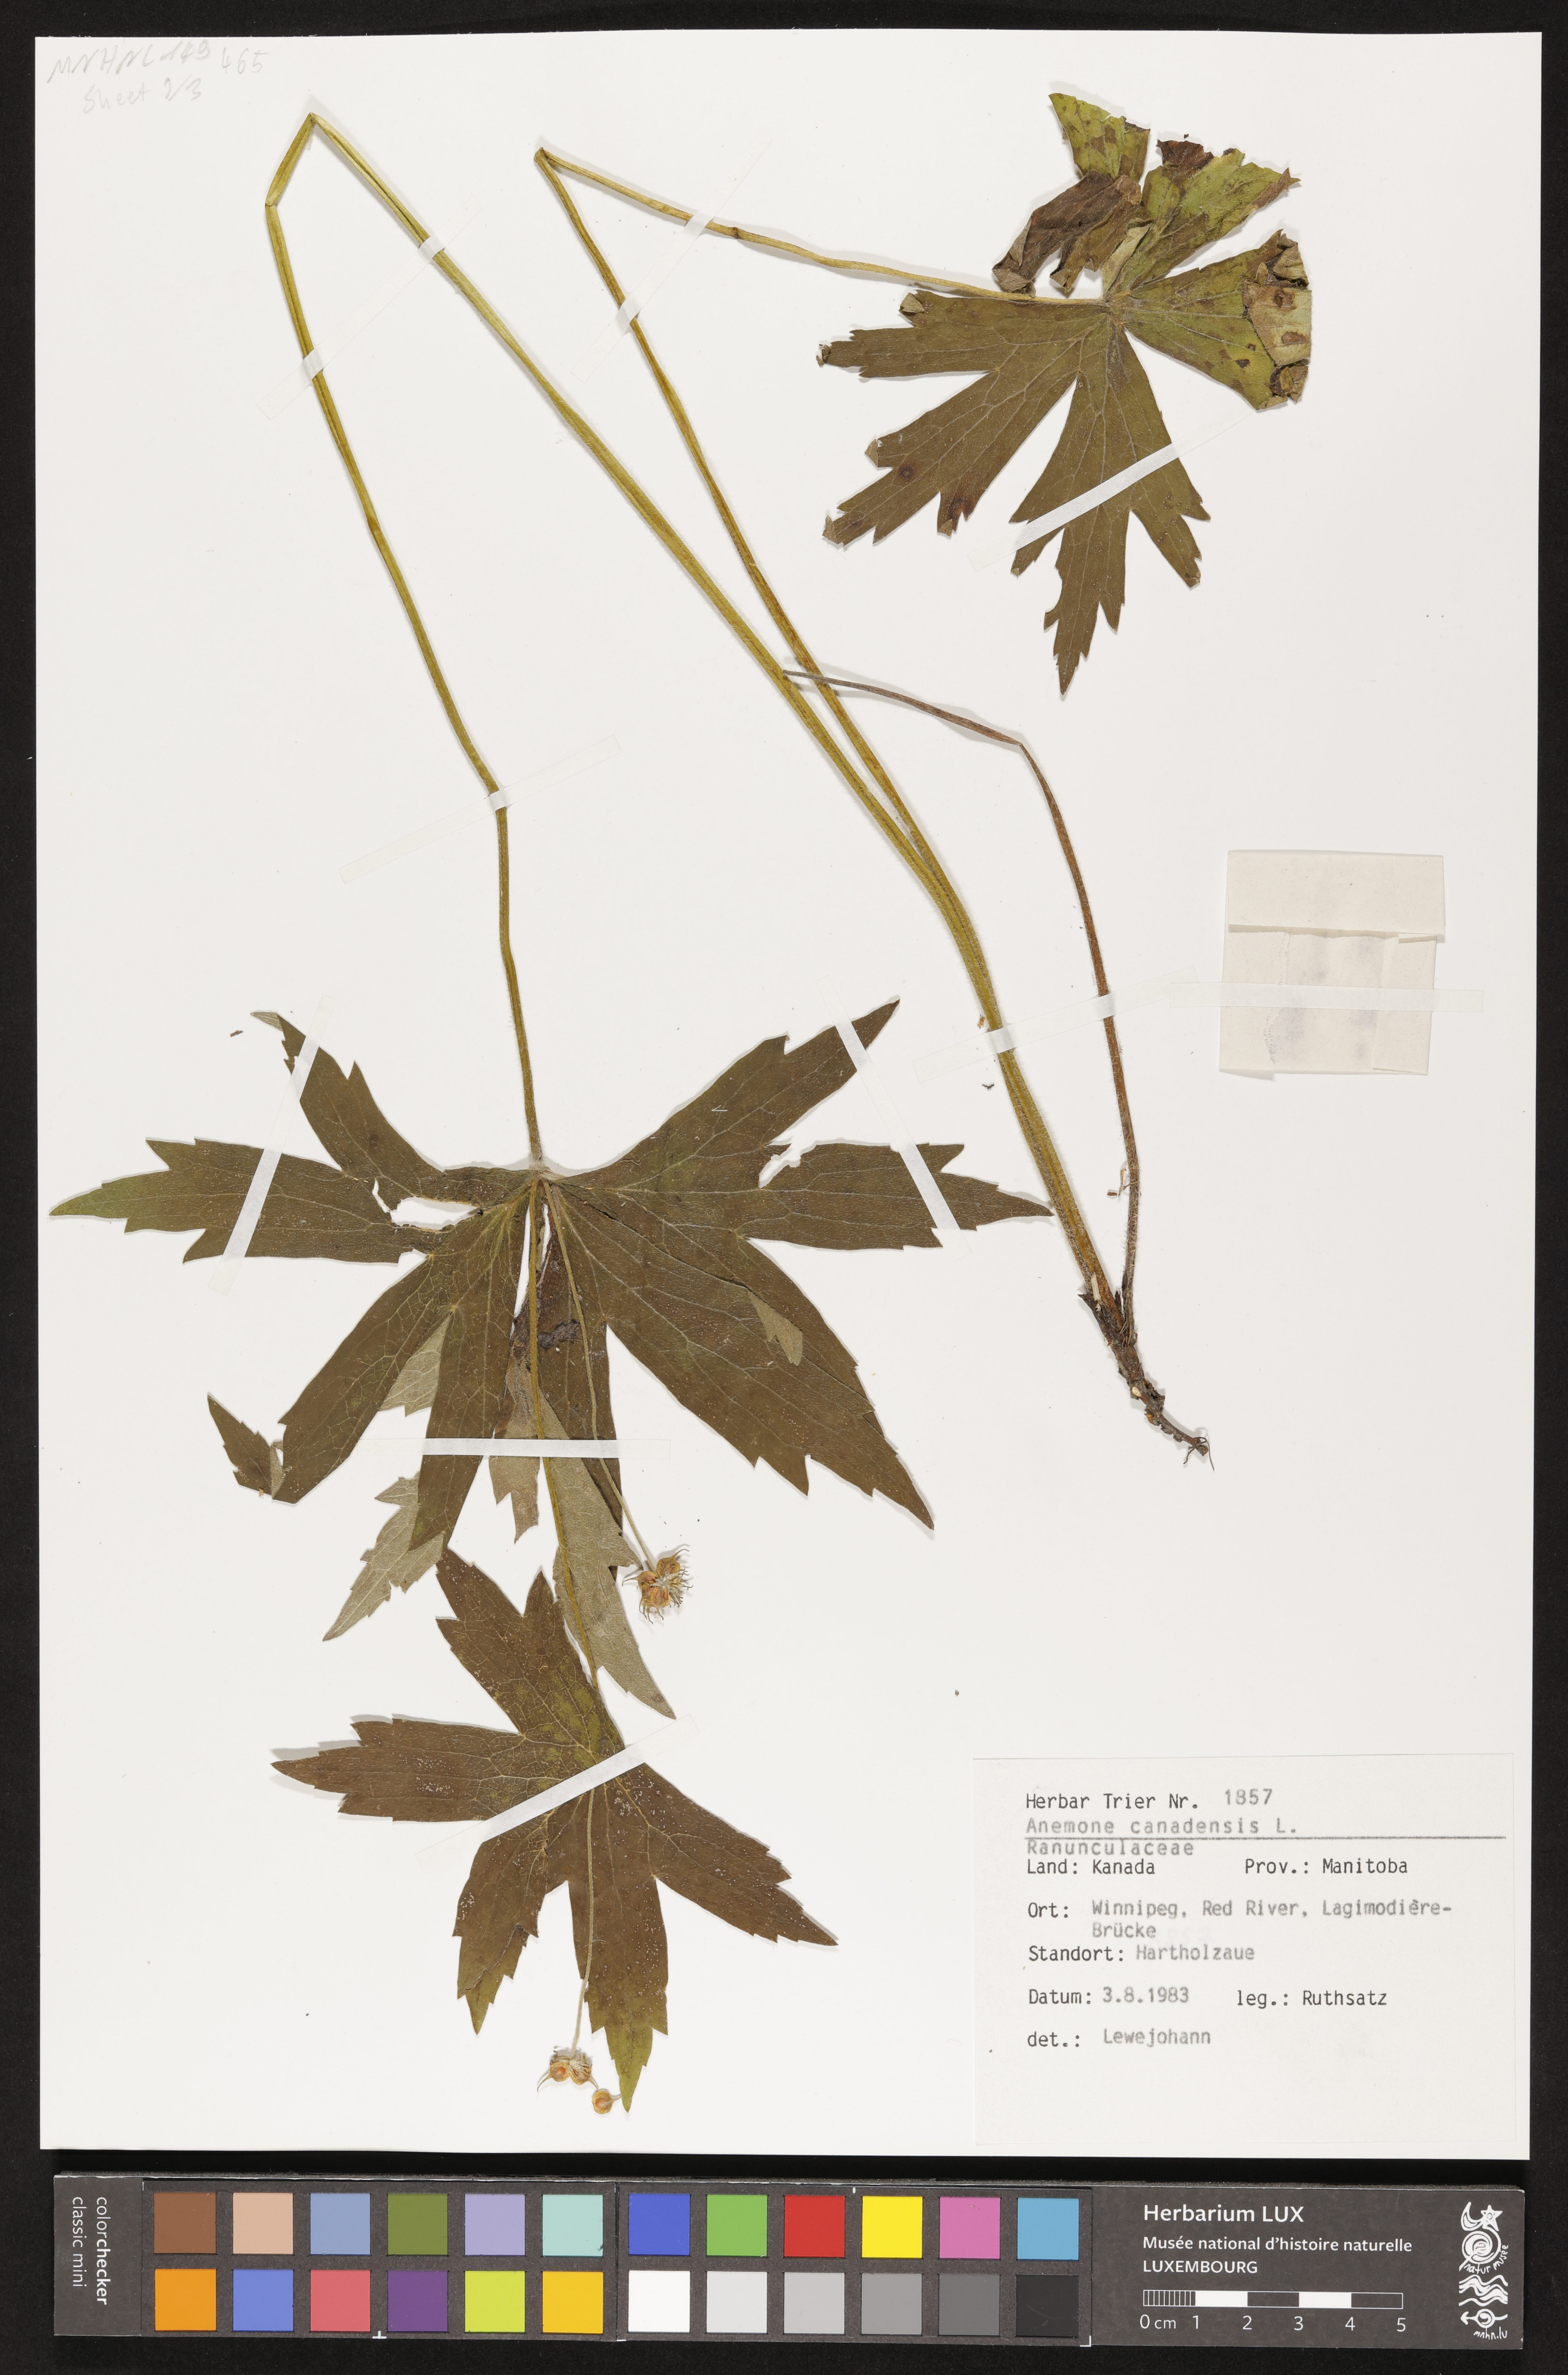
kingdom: Plantae
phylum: Tracheophyta
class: Magnoliopsida
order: Ranunculales
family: Ranunculaceae
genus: Anemonastrum
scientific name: Anemonastrum canadense
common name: Canada anemone
